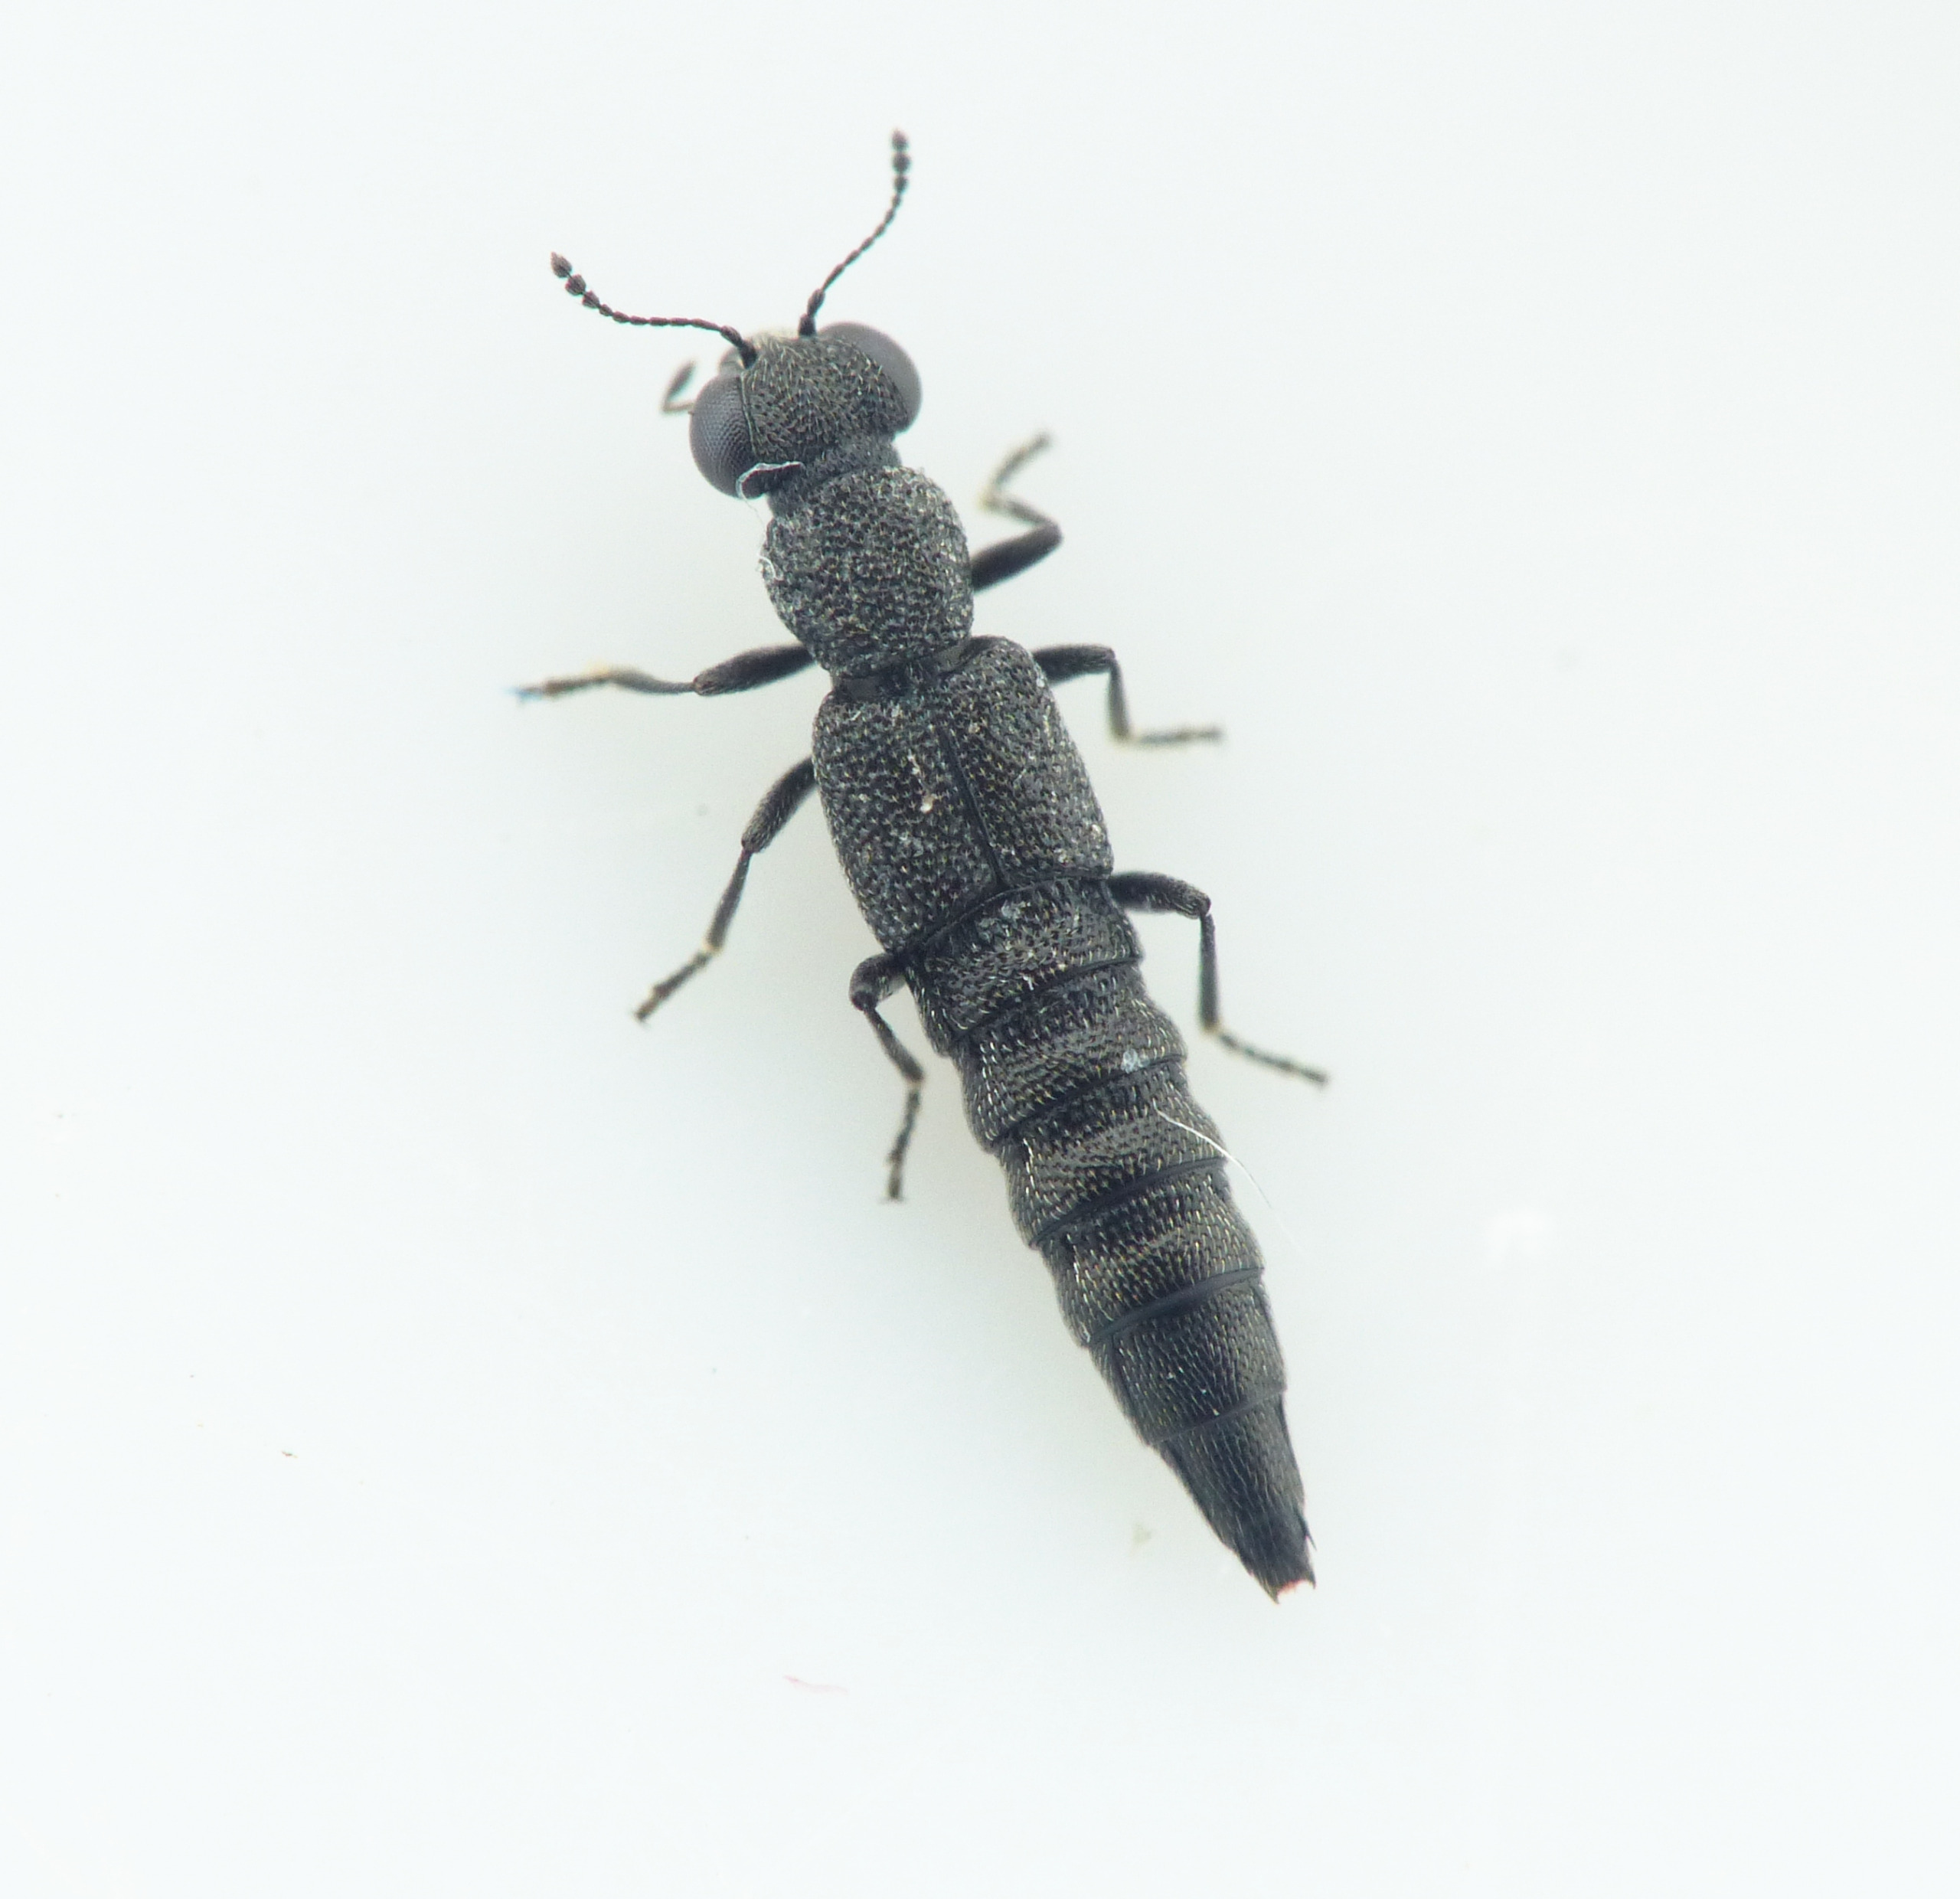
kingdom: Animalia
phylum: Arthropoda
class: Insecta
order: Coleoptera
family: Staphylinidae
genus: Stenus
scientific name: Stenus nigritulus
